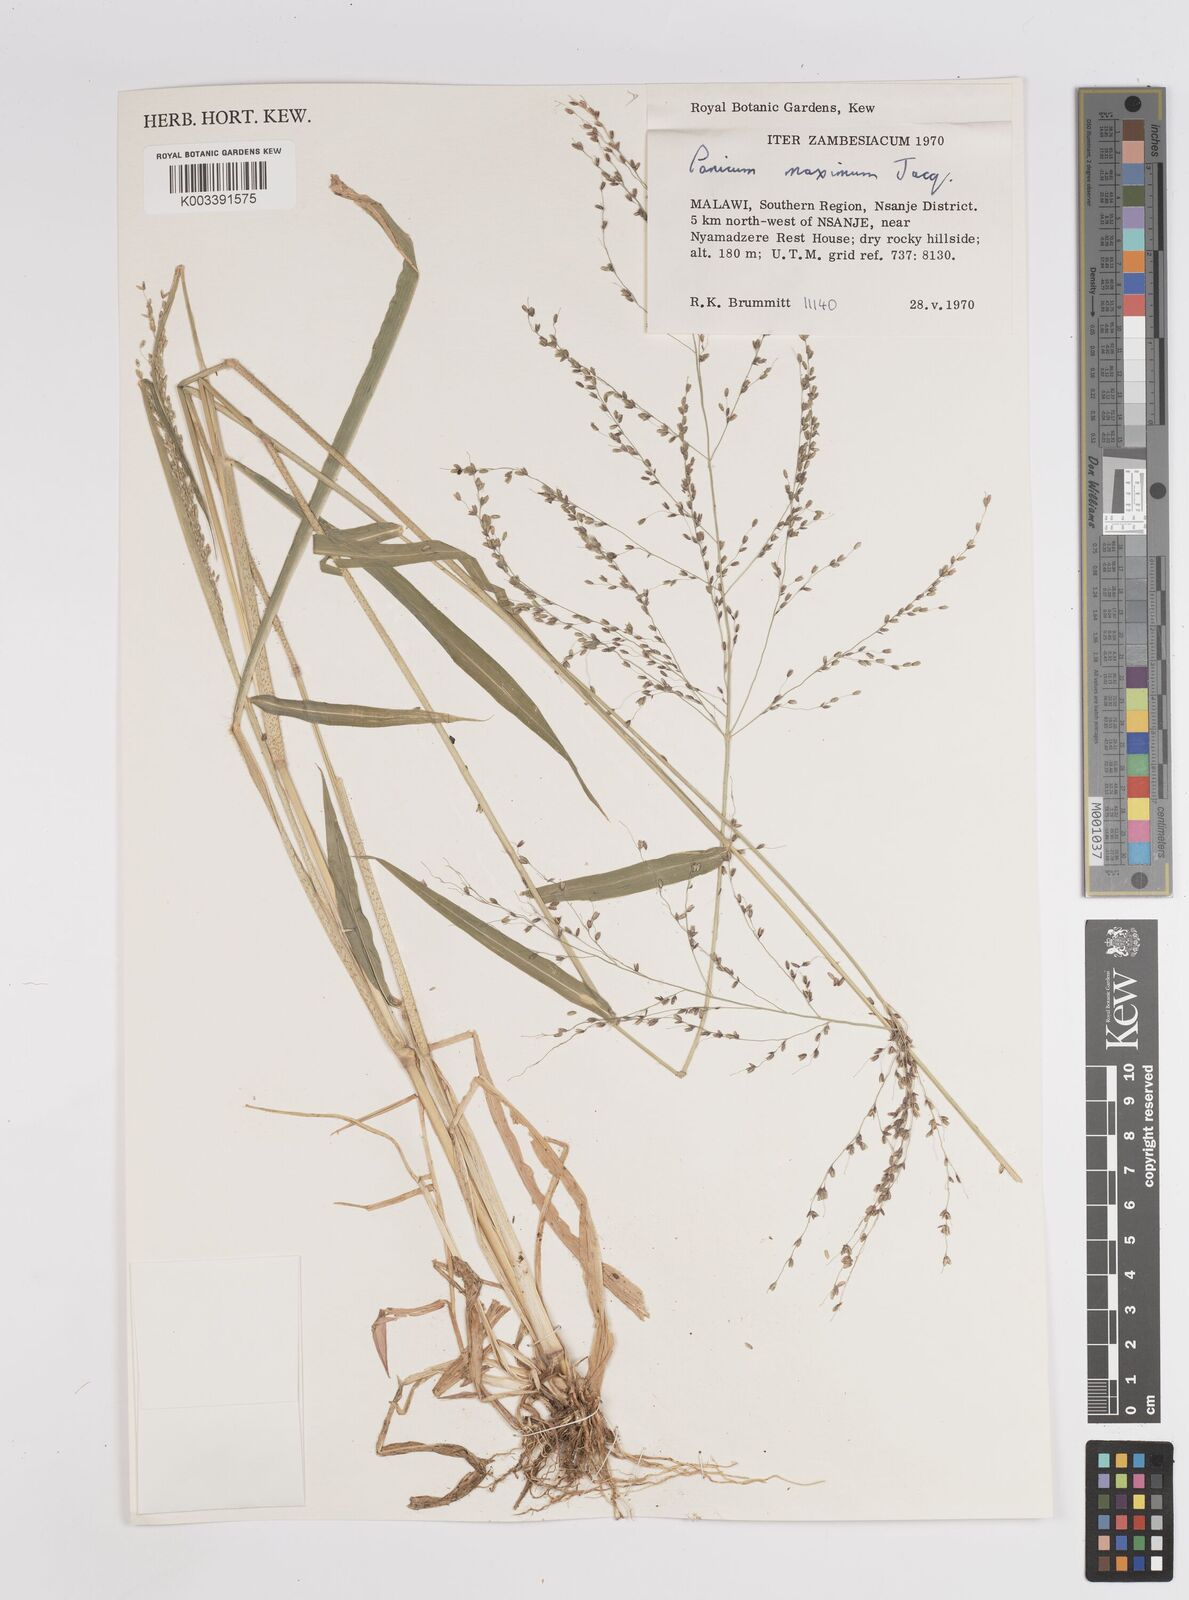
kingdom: Plantae
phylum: Tracheophyta
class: Liliopsida
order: Poales
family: Poaceae
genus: Megathyrsus
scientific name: Megathyrsus maximus
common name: Guineagrass
